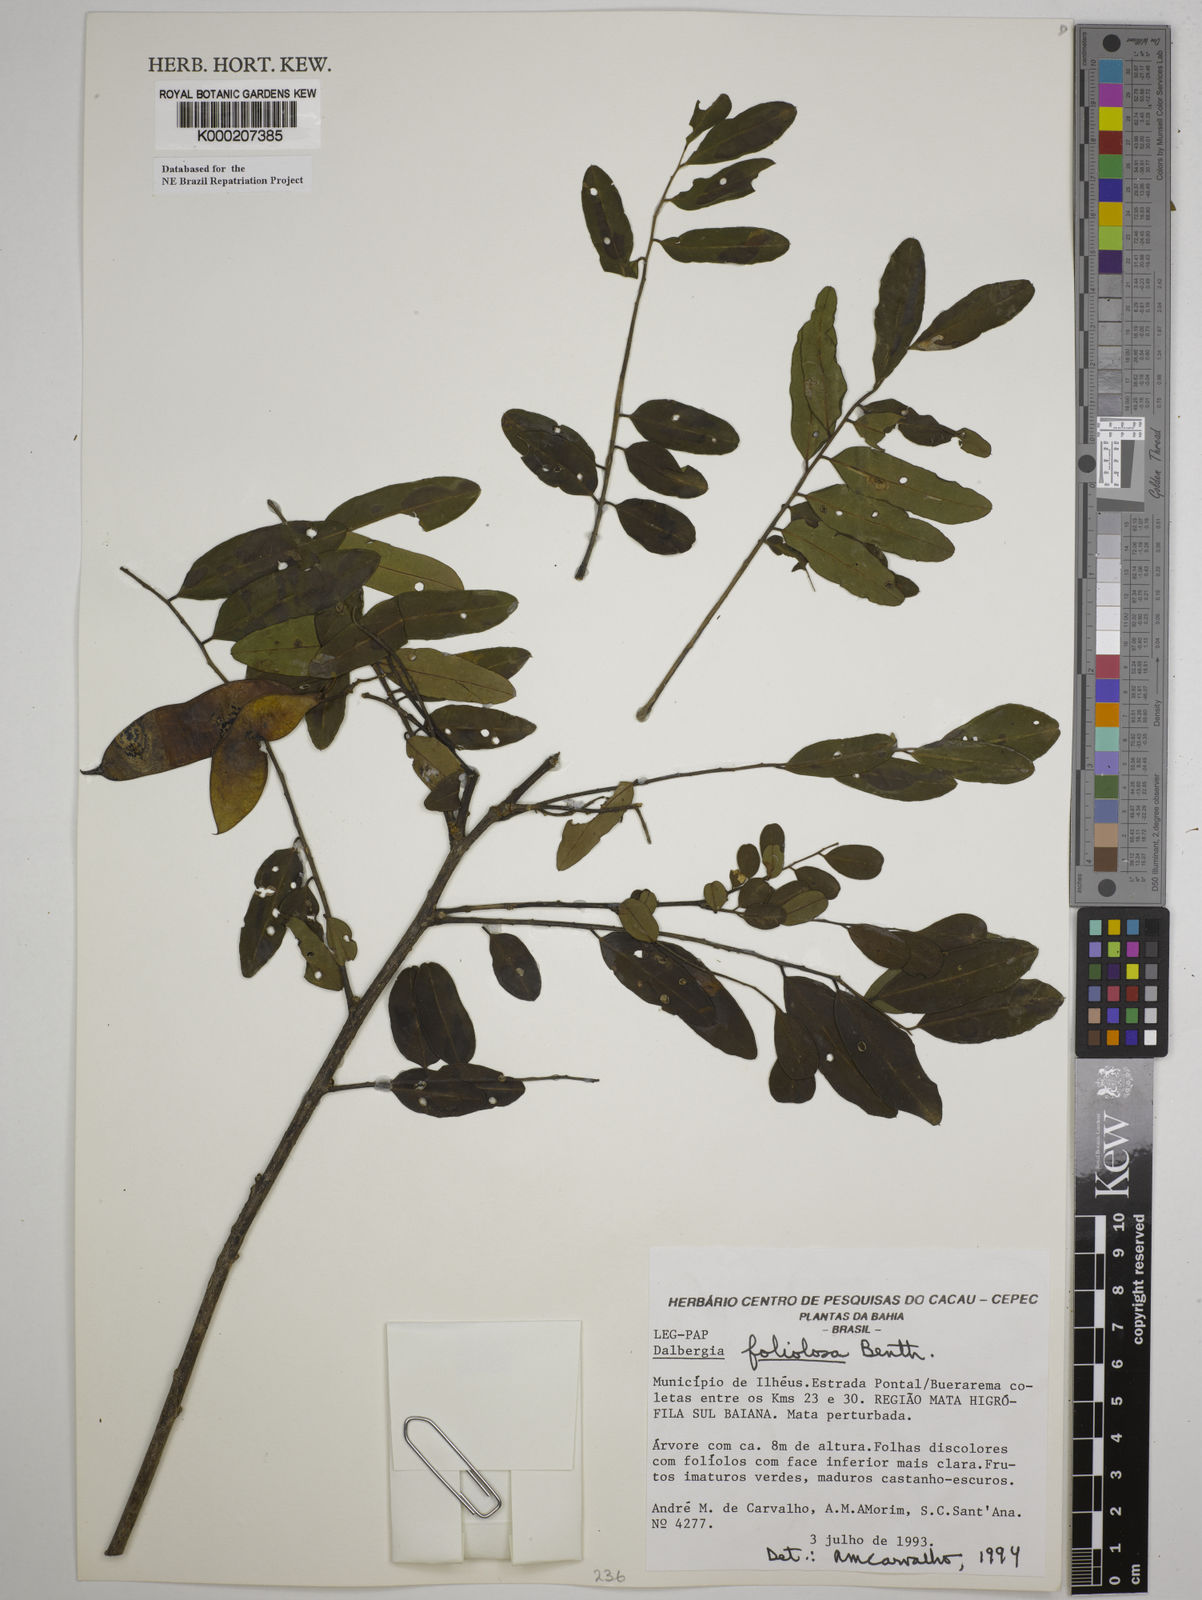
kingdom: Plantae
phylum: Tracheophyta
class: Magnoliopsida
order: Fabales
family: Fabaceae
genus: Dalbergia
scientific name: Dalbergia foliolosa
